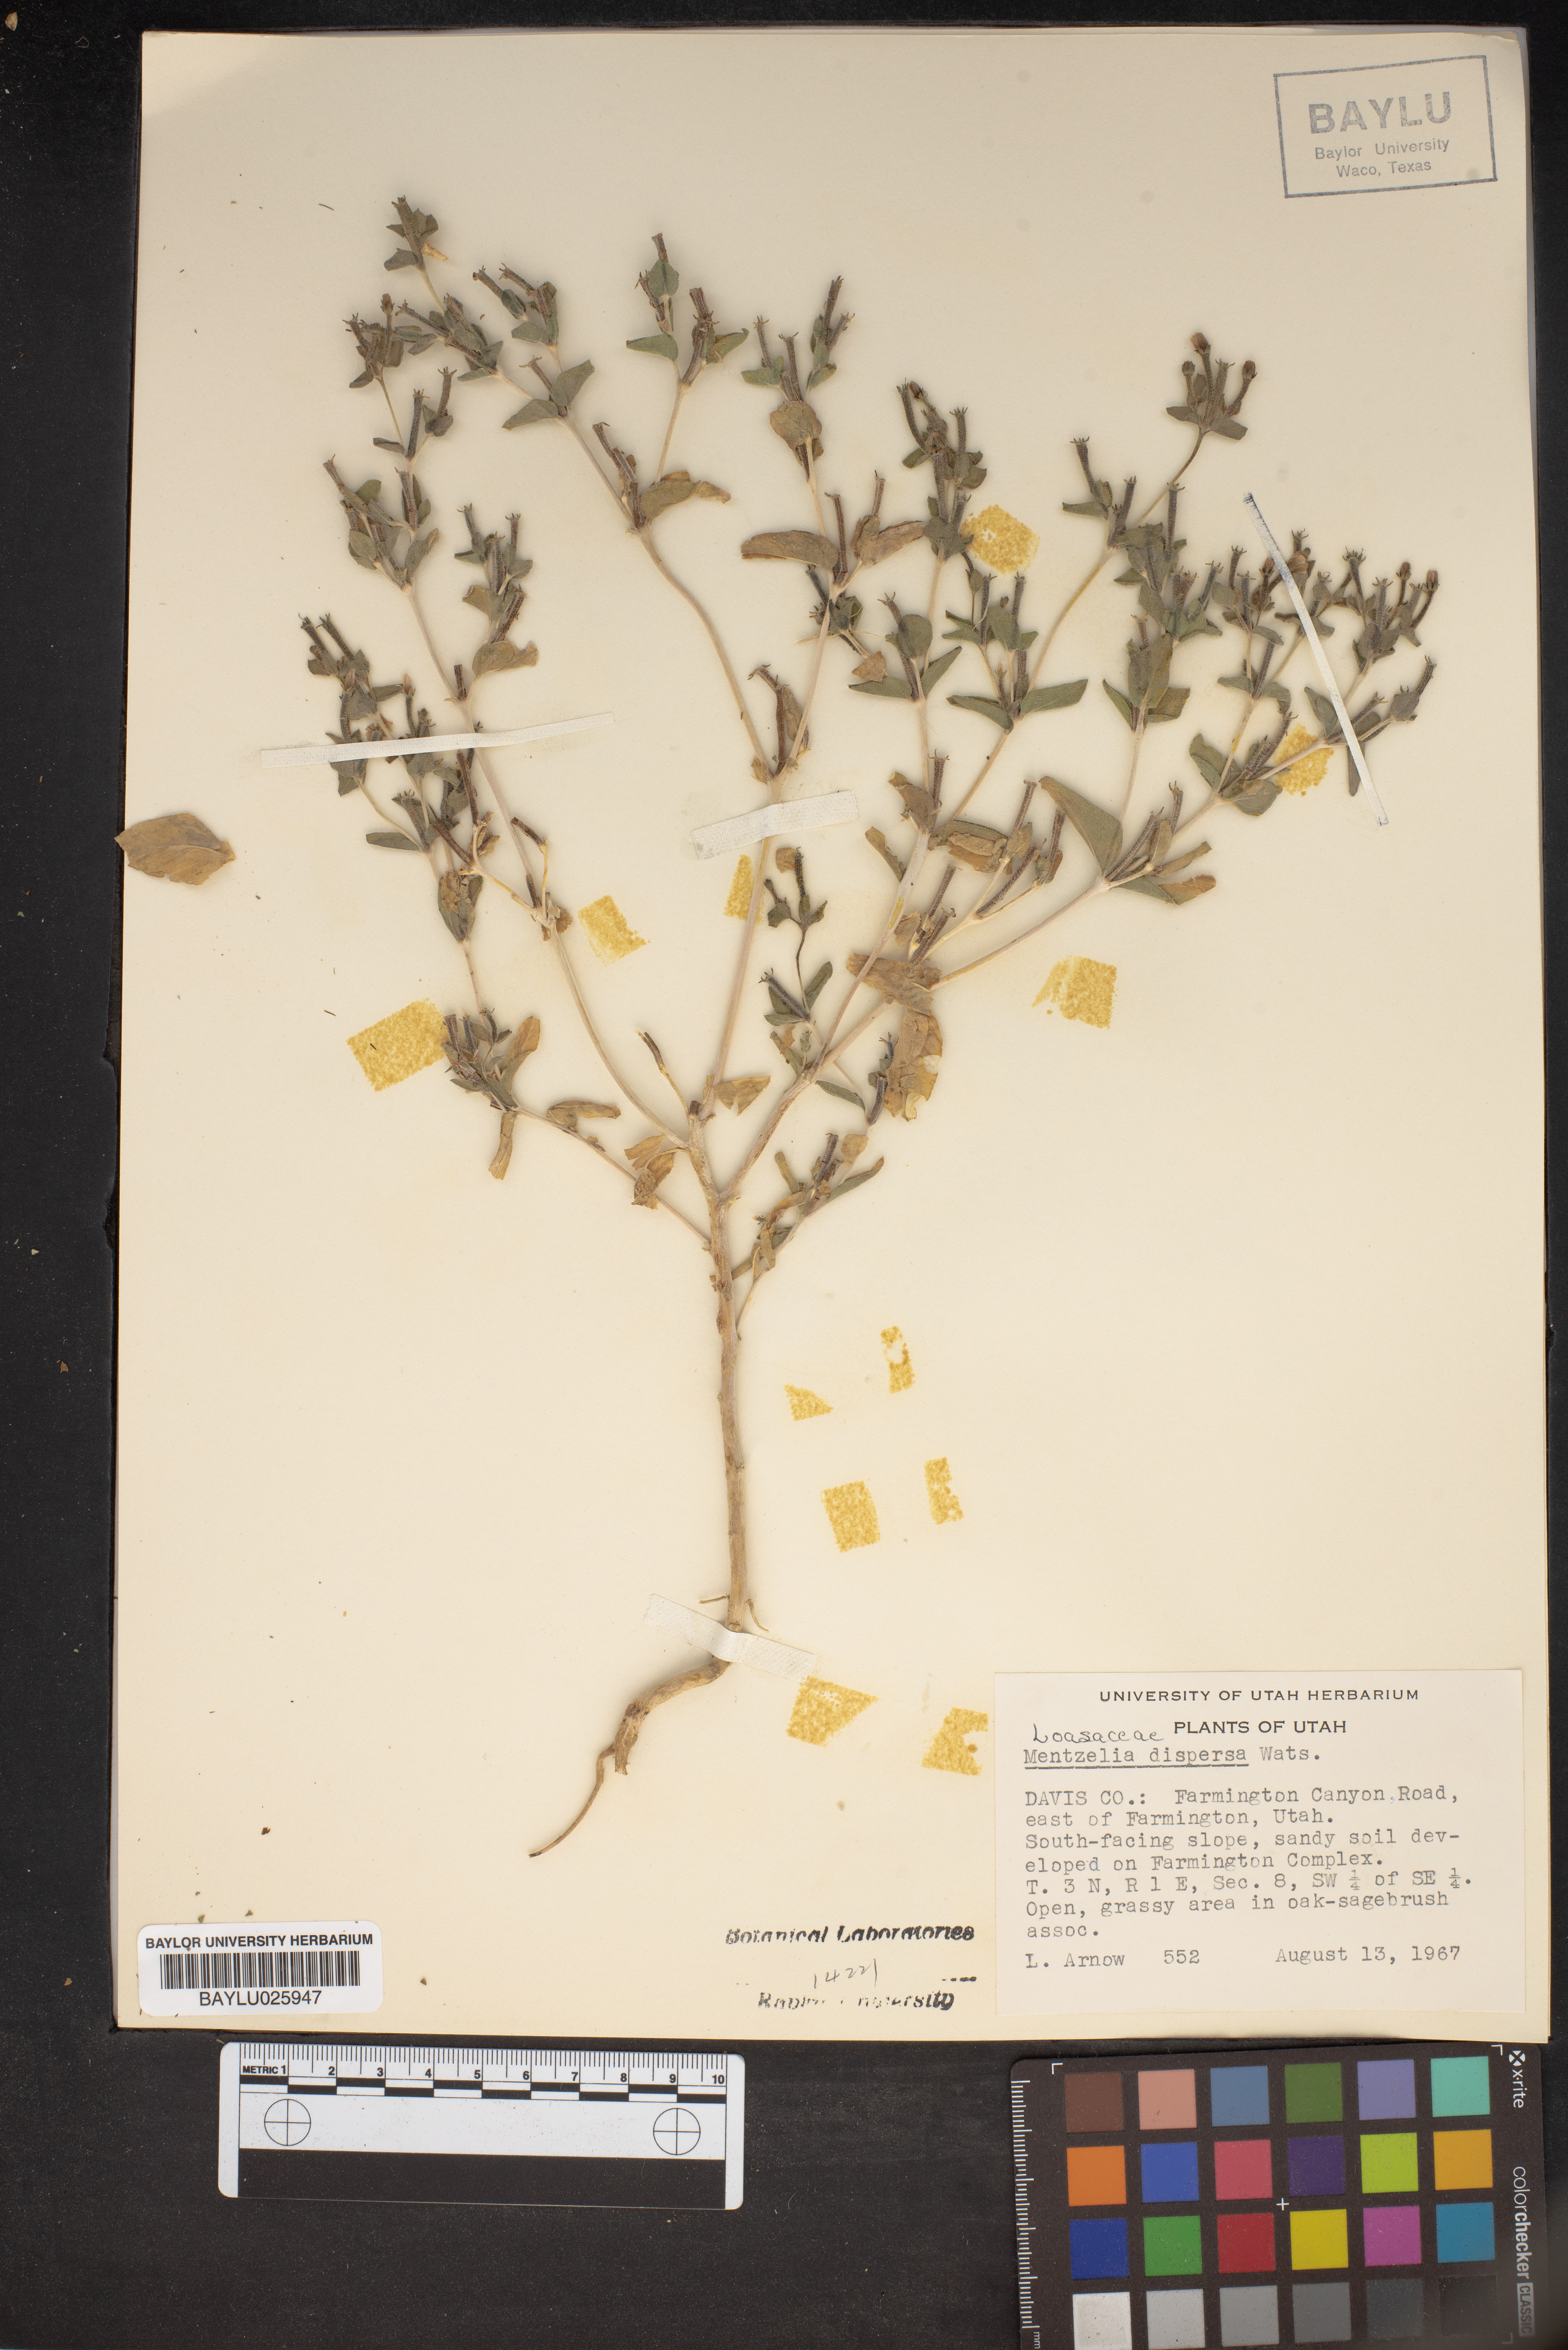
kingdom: Plantae
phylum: Tracheophyta
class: Magnoliopsida
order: Cornales
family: Loasaceae
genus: Mentzelia
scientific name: Mentzelia dispersa
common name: Nada stickleaf
